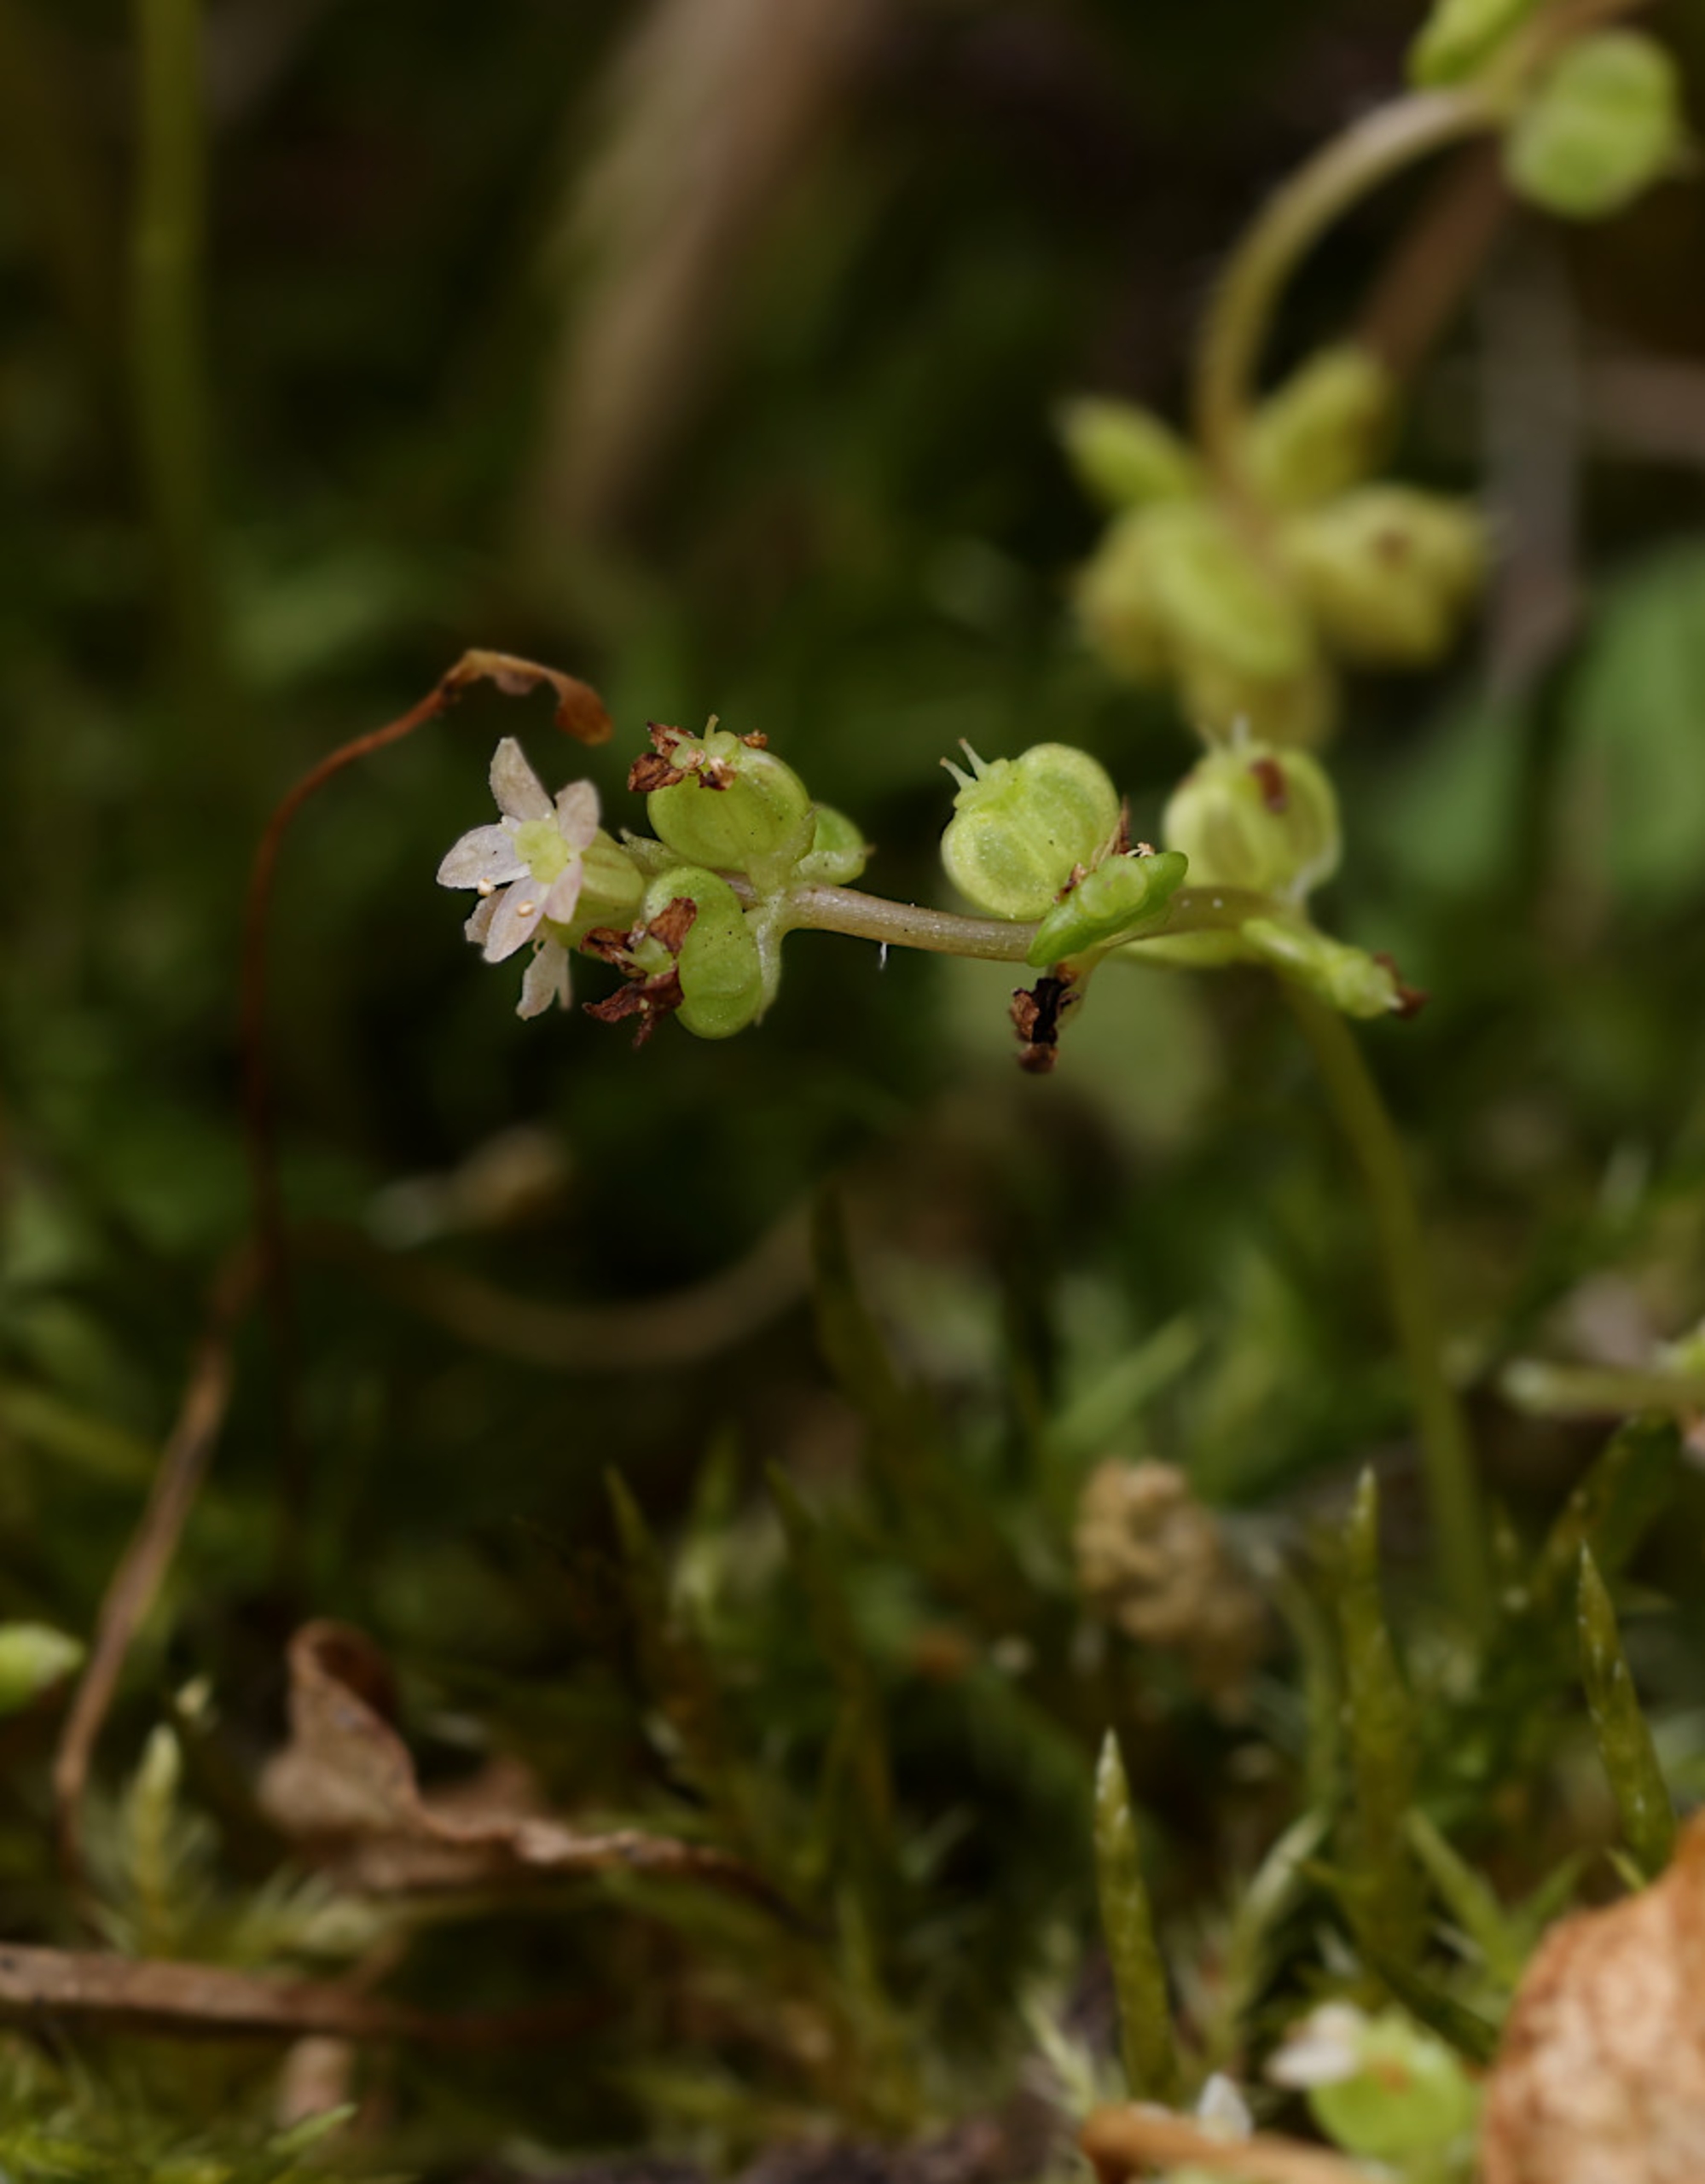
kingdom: Plantae
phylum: Tracheophyta
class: Magnoliopsida
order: Apiales
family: Araliaceae
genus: Hydrocotyle
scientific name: Hydrocotyle vulgaris
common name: Vandnavle
